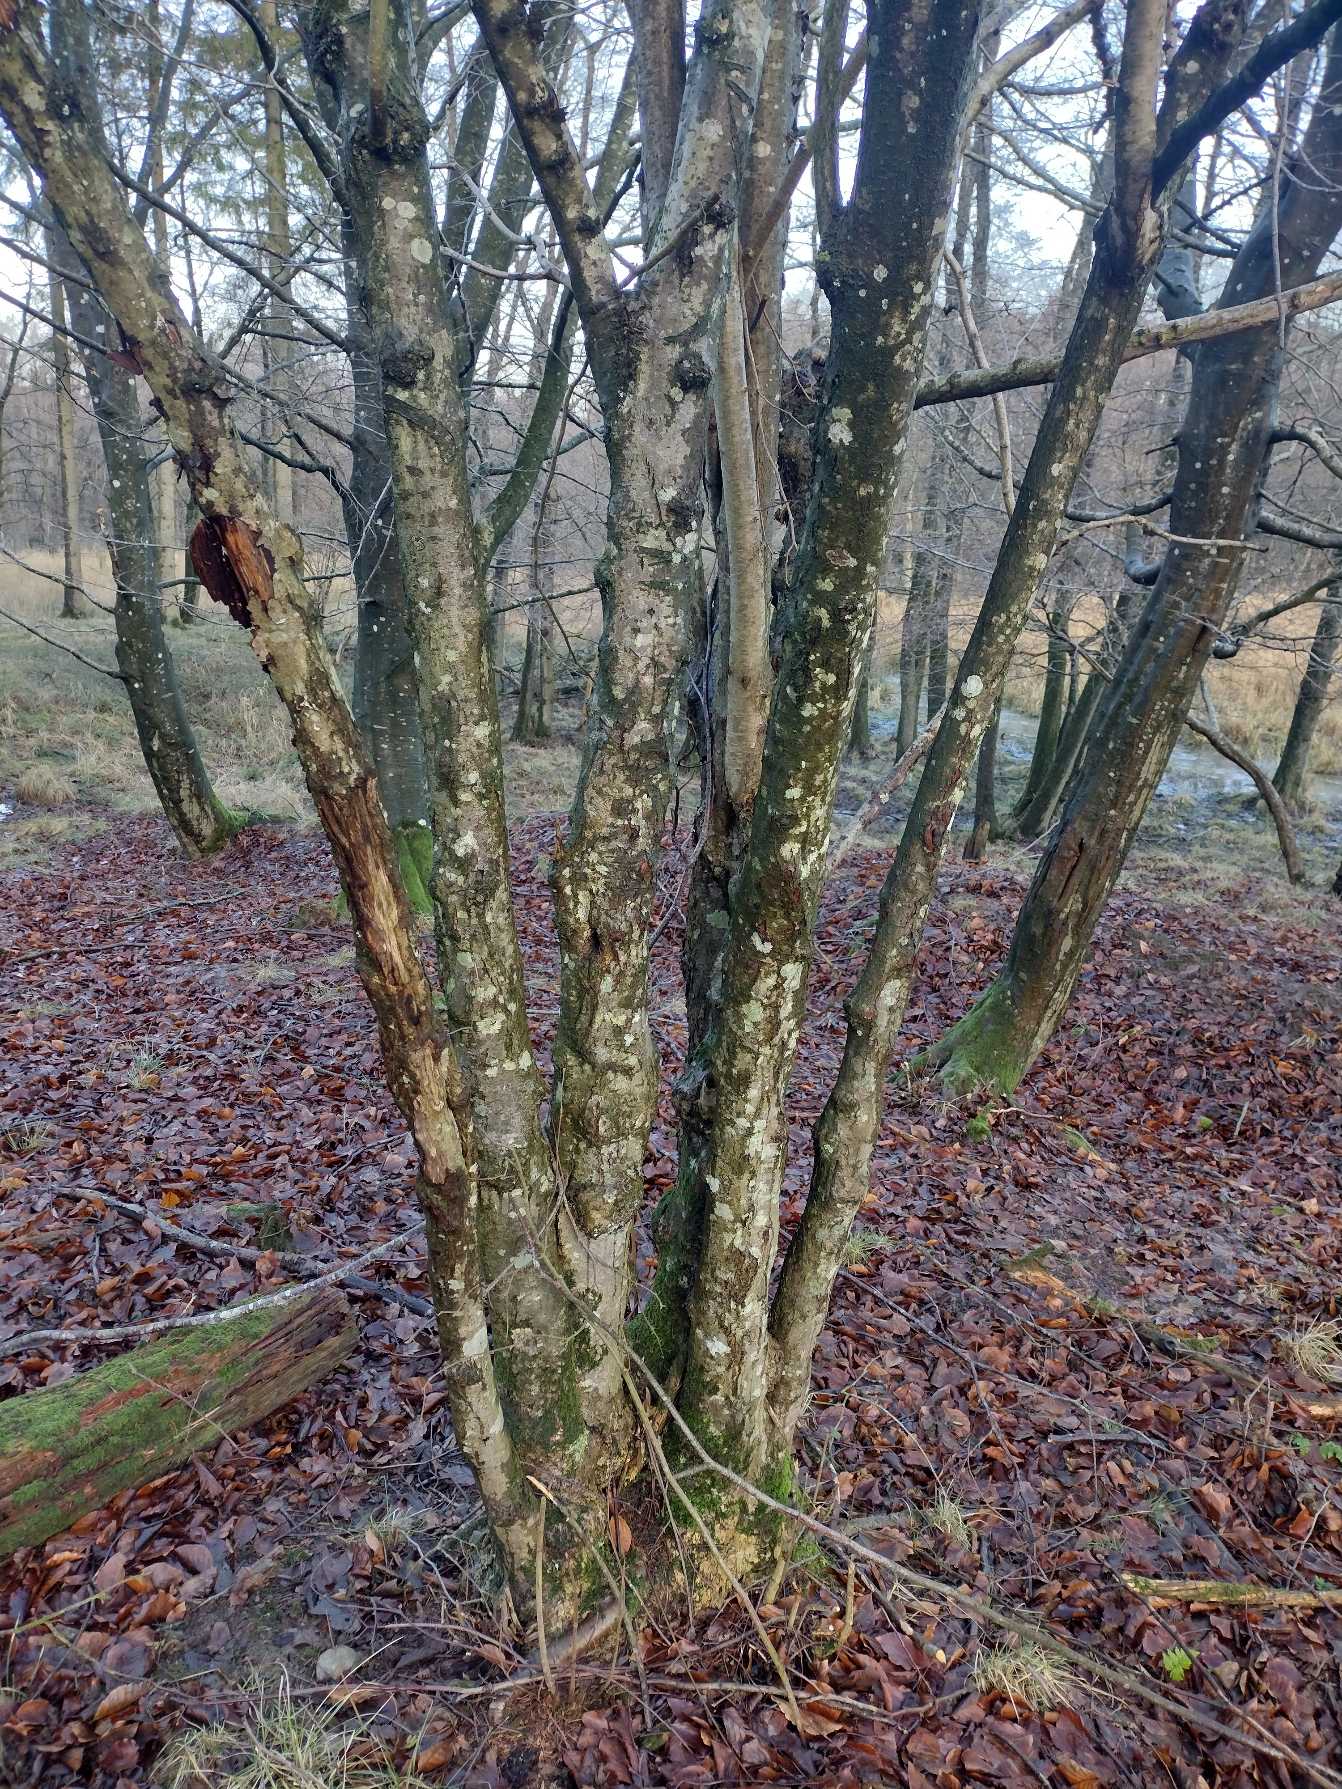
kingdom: Plantae
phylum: Tracheophyta
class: Magnoliopsida
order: Fagales
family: Betulaceae
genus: Corylus
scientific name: Corylus avellana
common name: Hassel
